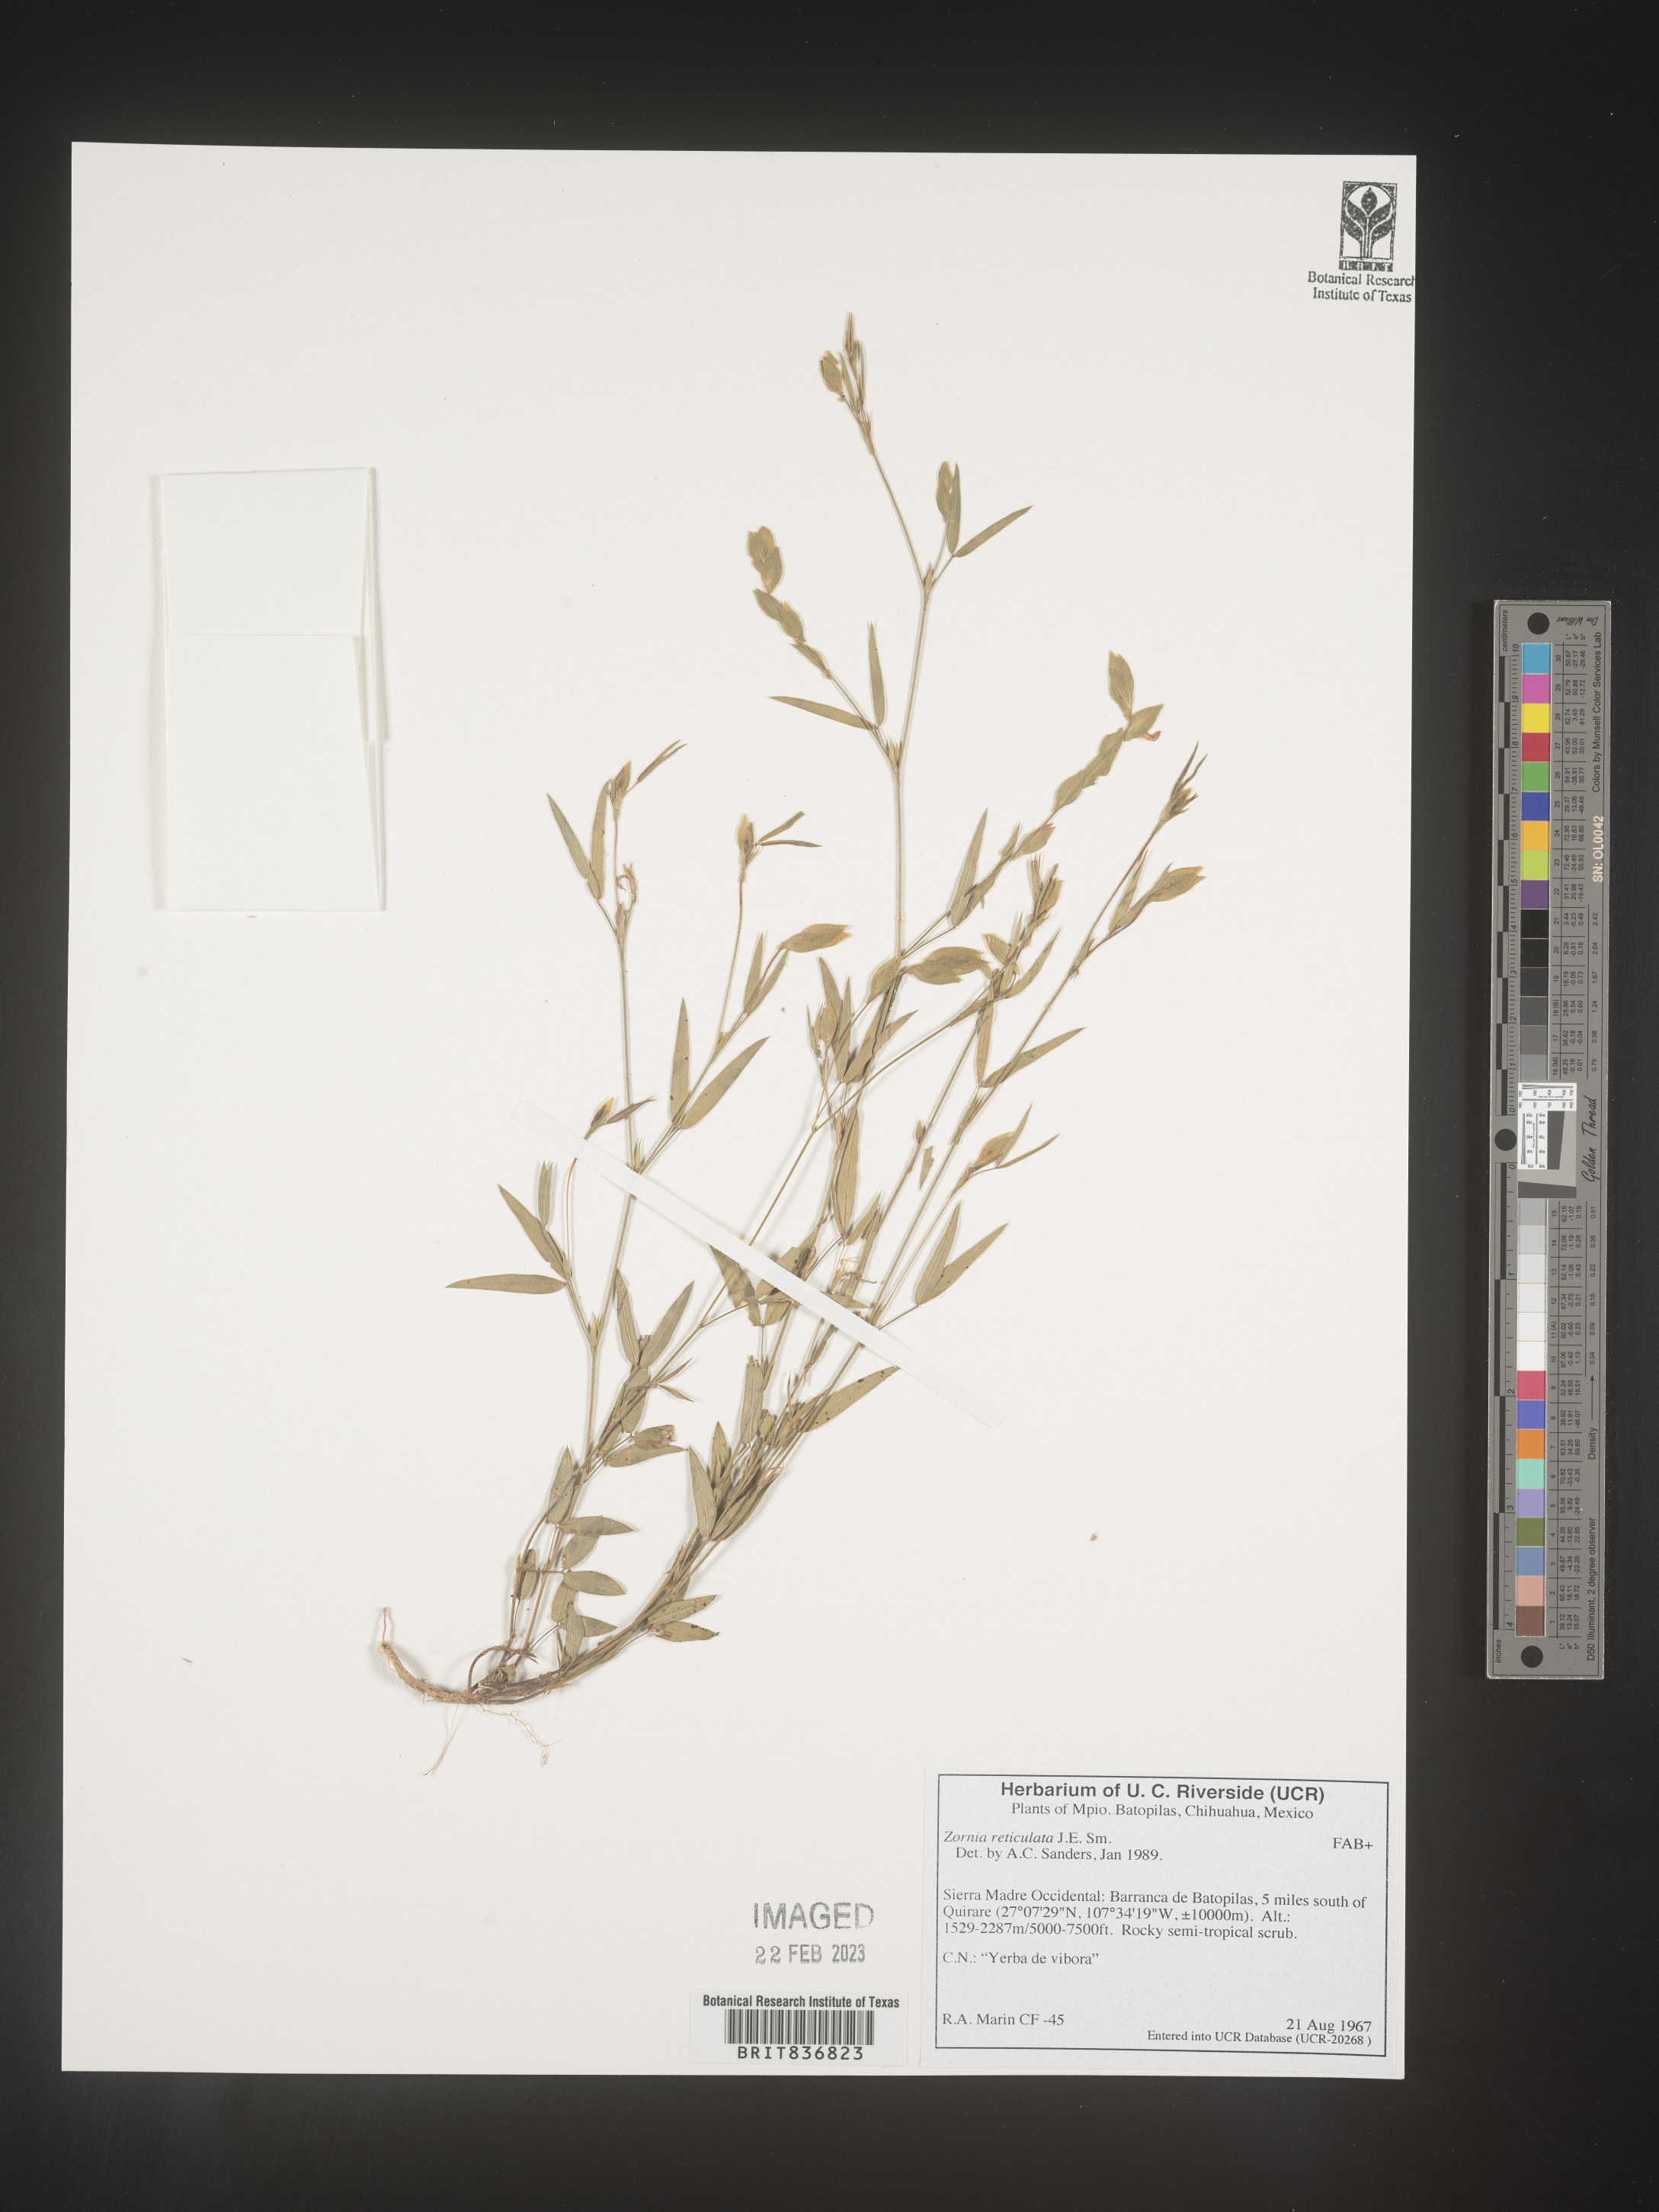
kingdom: Plantae
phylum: Tracheophyta
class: Magnoliopsida
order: Fabales
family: Fabaceae
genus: Zornia
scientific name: Zornia
